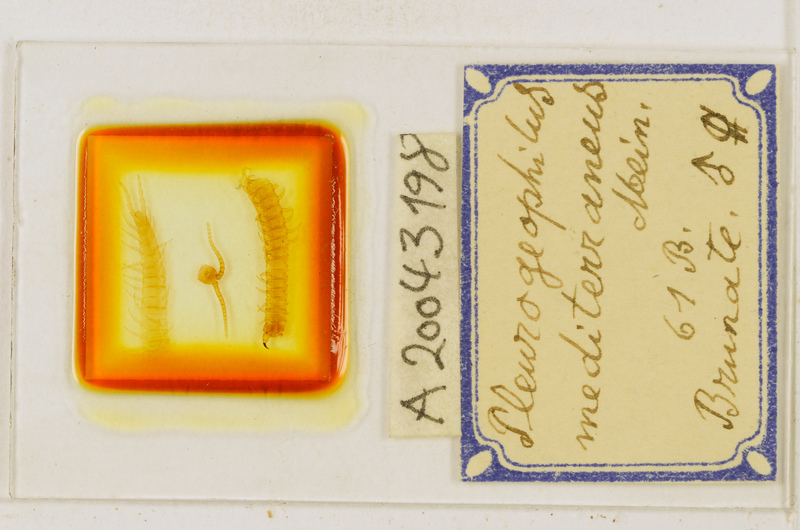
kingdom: Animalia
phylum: Arthropoda
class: Chilopoda
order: Geophilomorpha
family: Geophilidae
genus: Pleurogeophilus
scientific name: Pleurogeophilus mediterraneus
